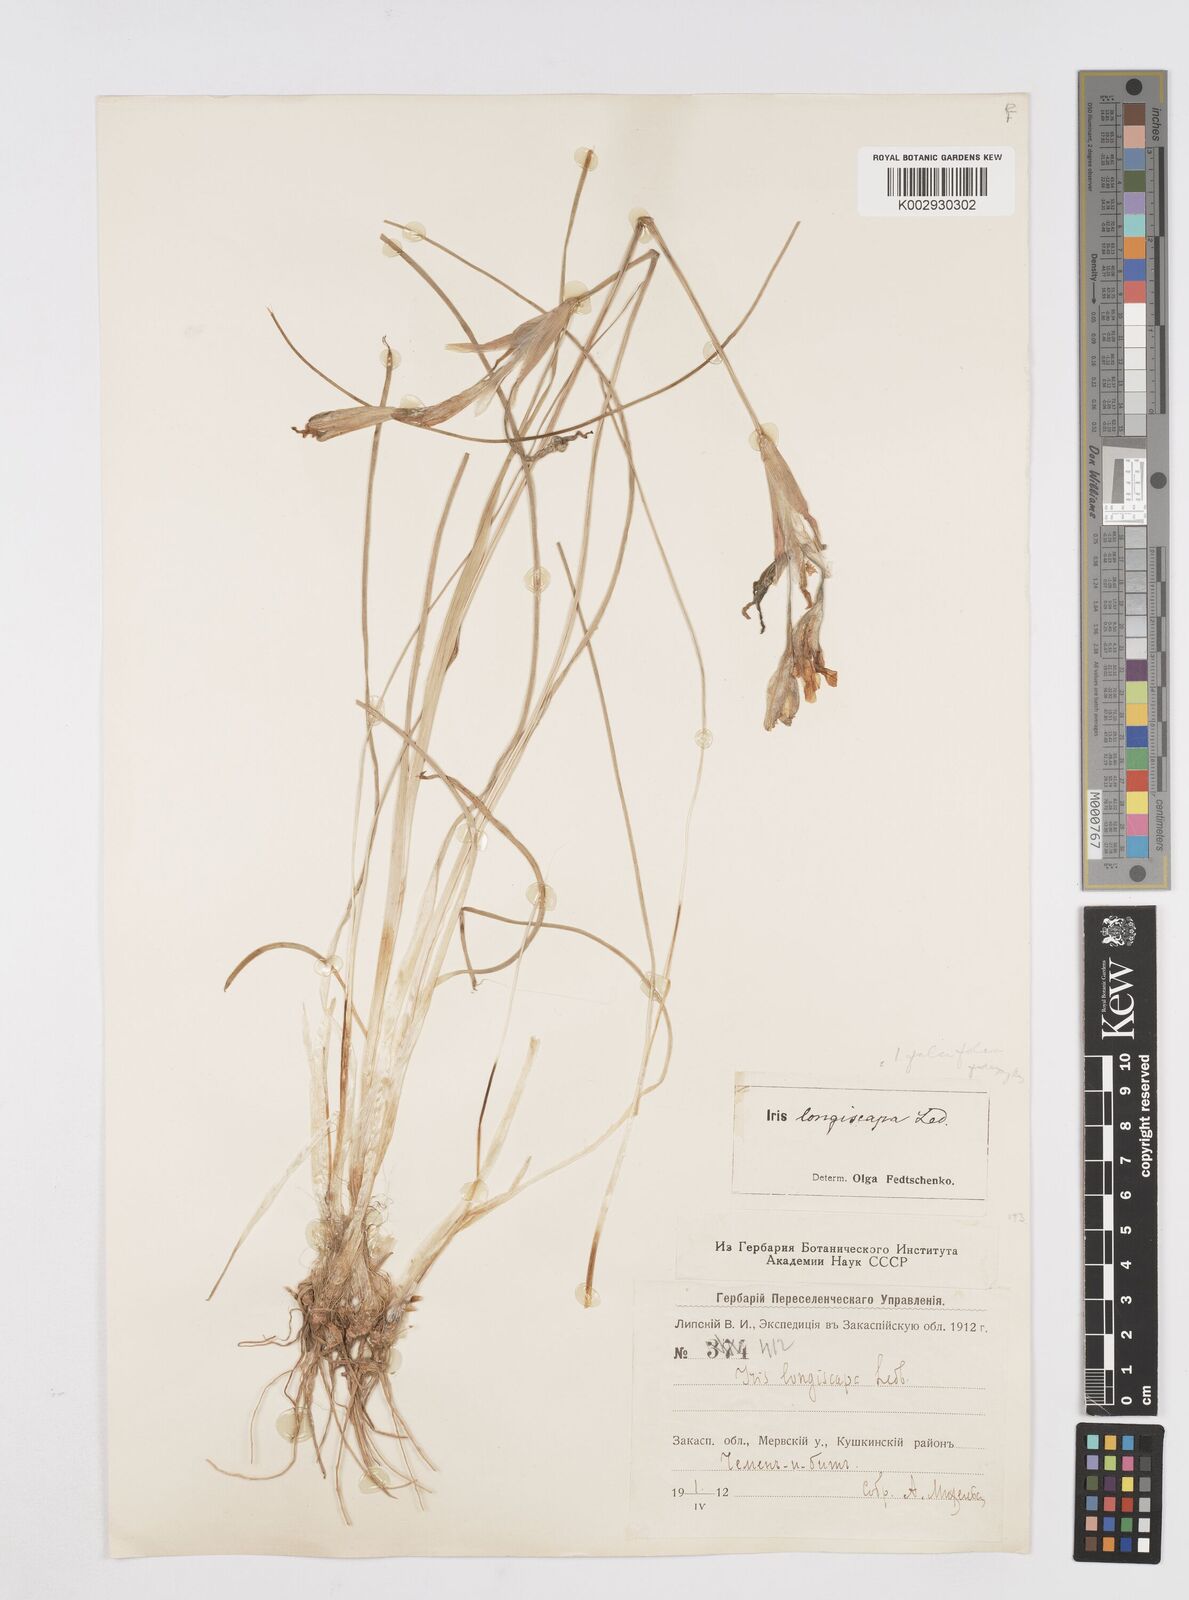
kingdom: Plantae
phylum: Tracheophyta
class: Liliopsida
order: Asparagales
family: Iridaceae
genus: Iris
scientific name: Iris longiscapa
